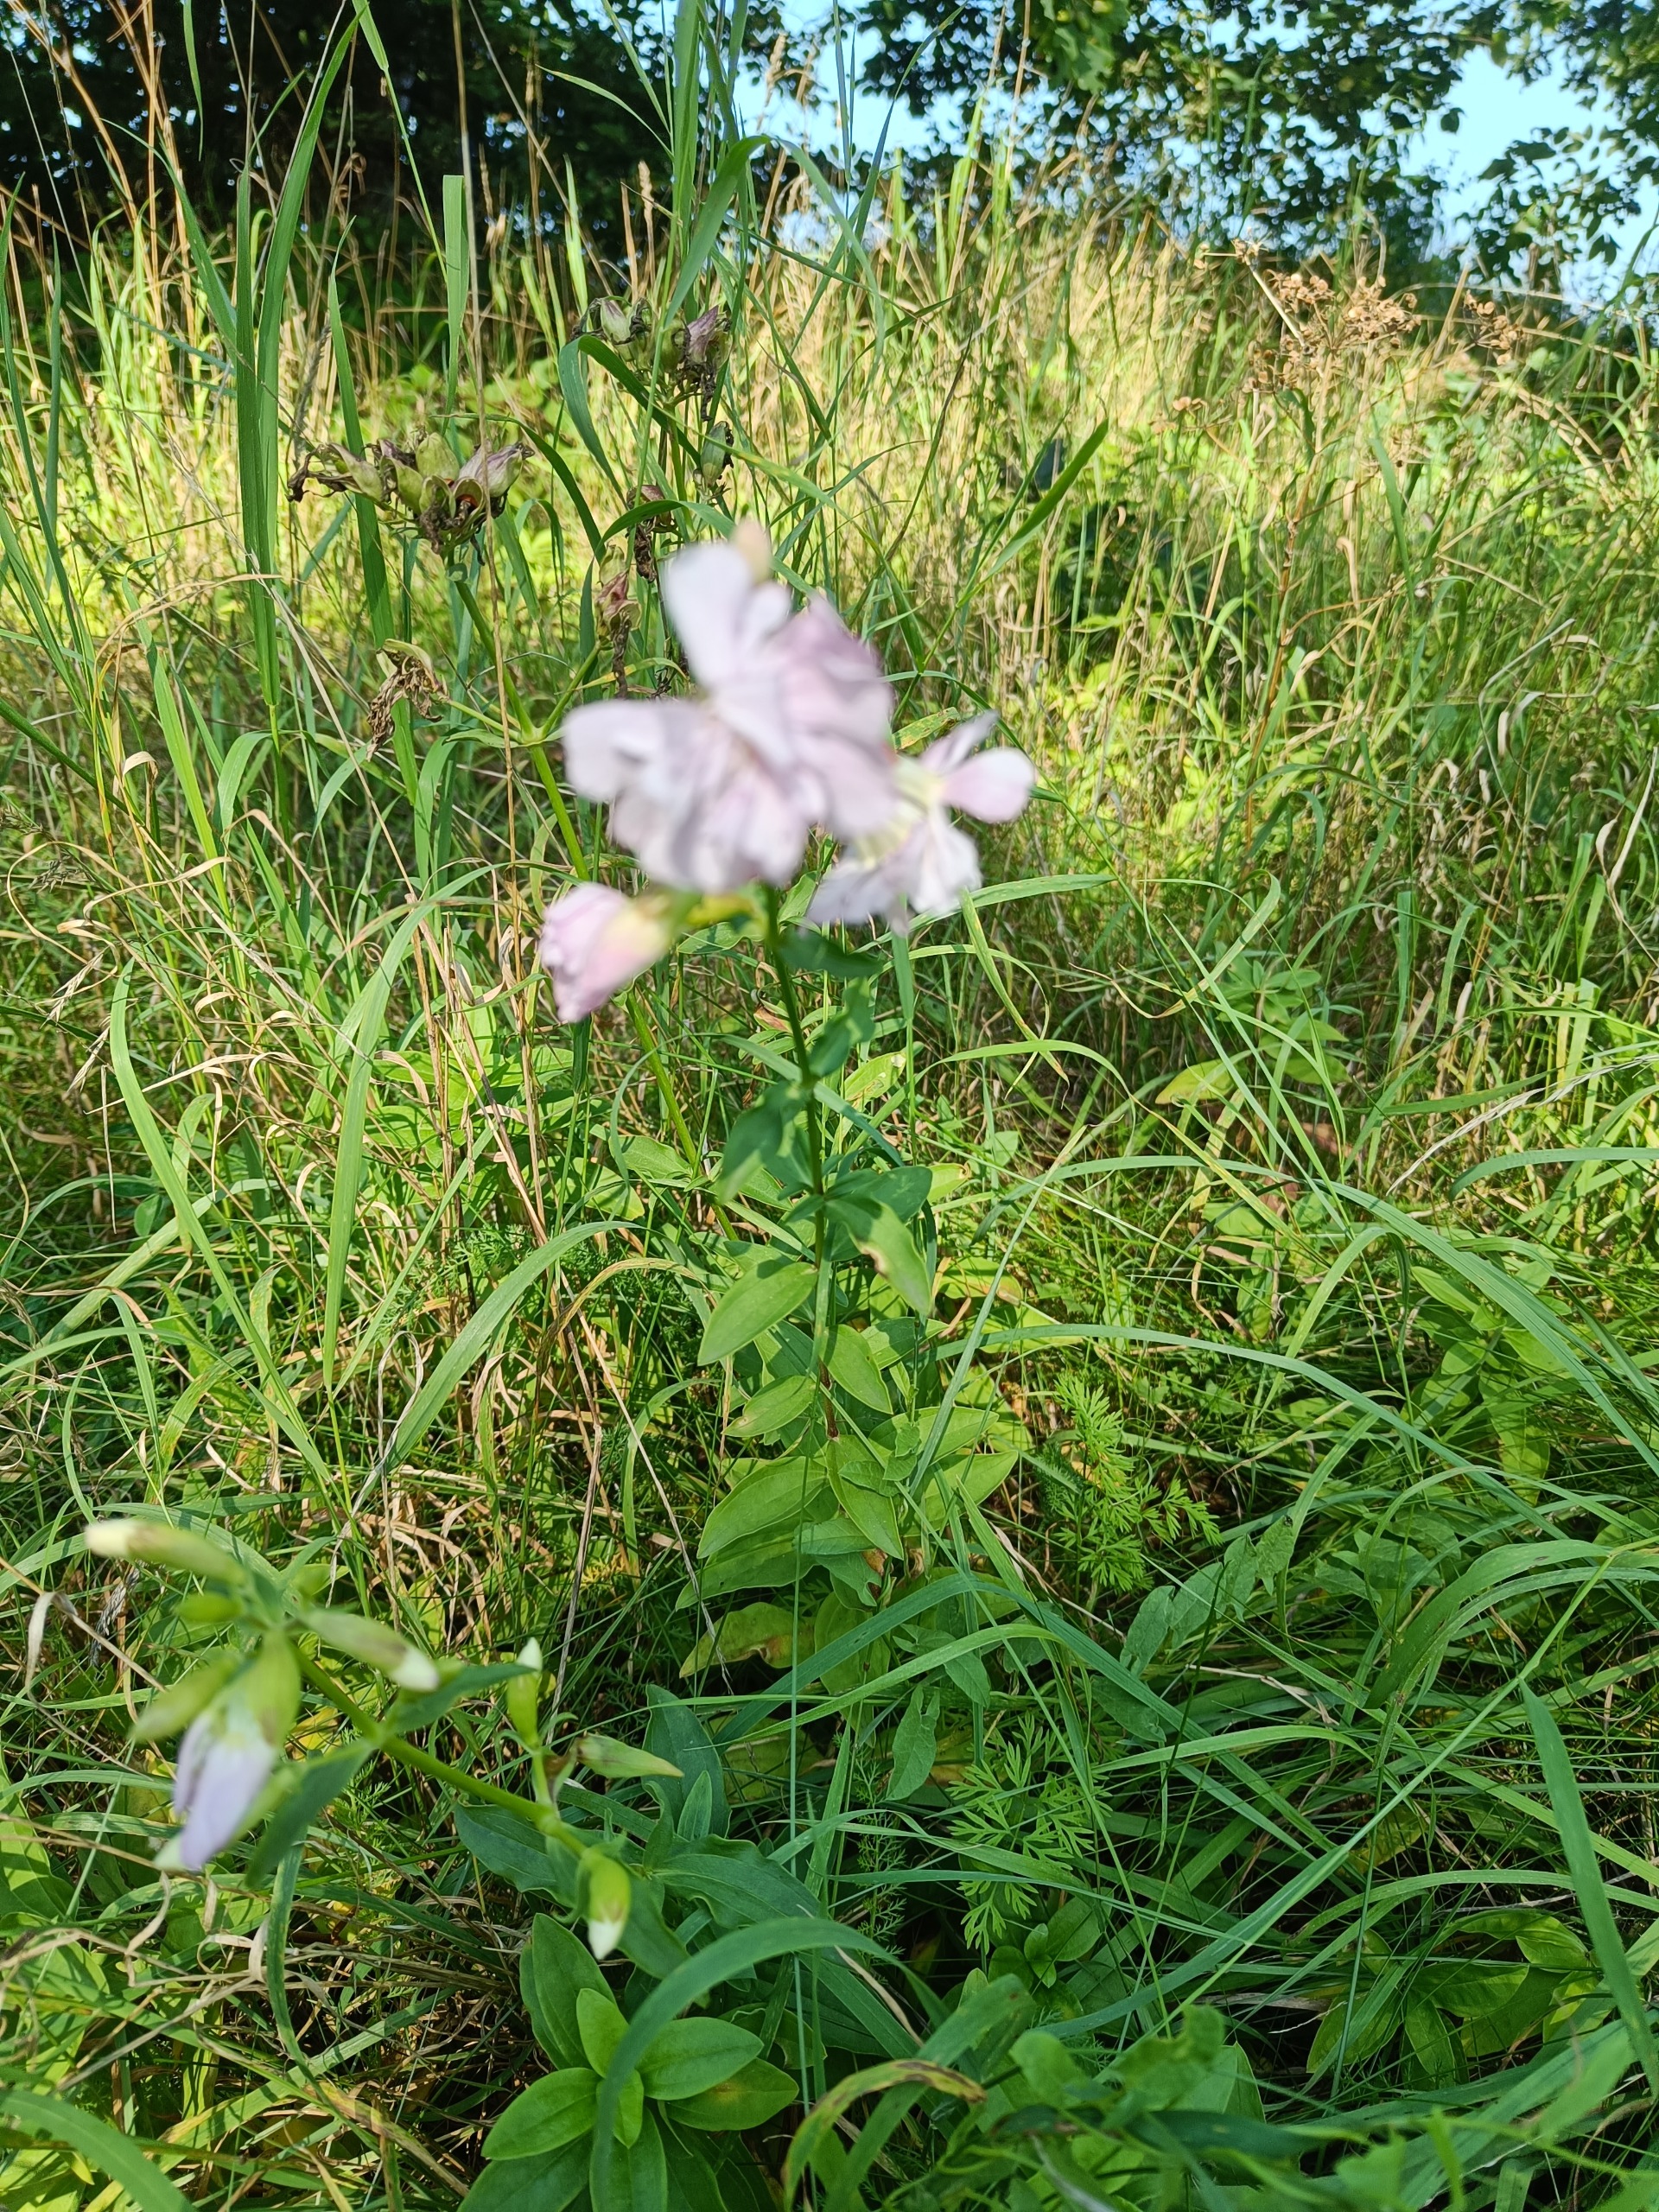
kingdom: Plantae
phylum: Tracheophyta
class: Magnoliopsida
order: Caryophyllales
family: Caryophyllaceae
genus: Saponaria
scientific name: Saponaria officinalis
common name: Sæbeurt
